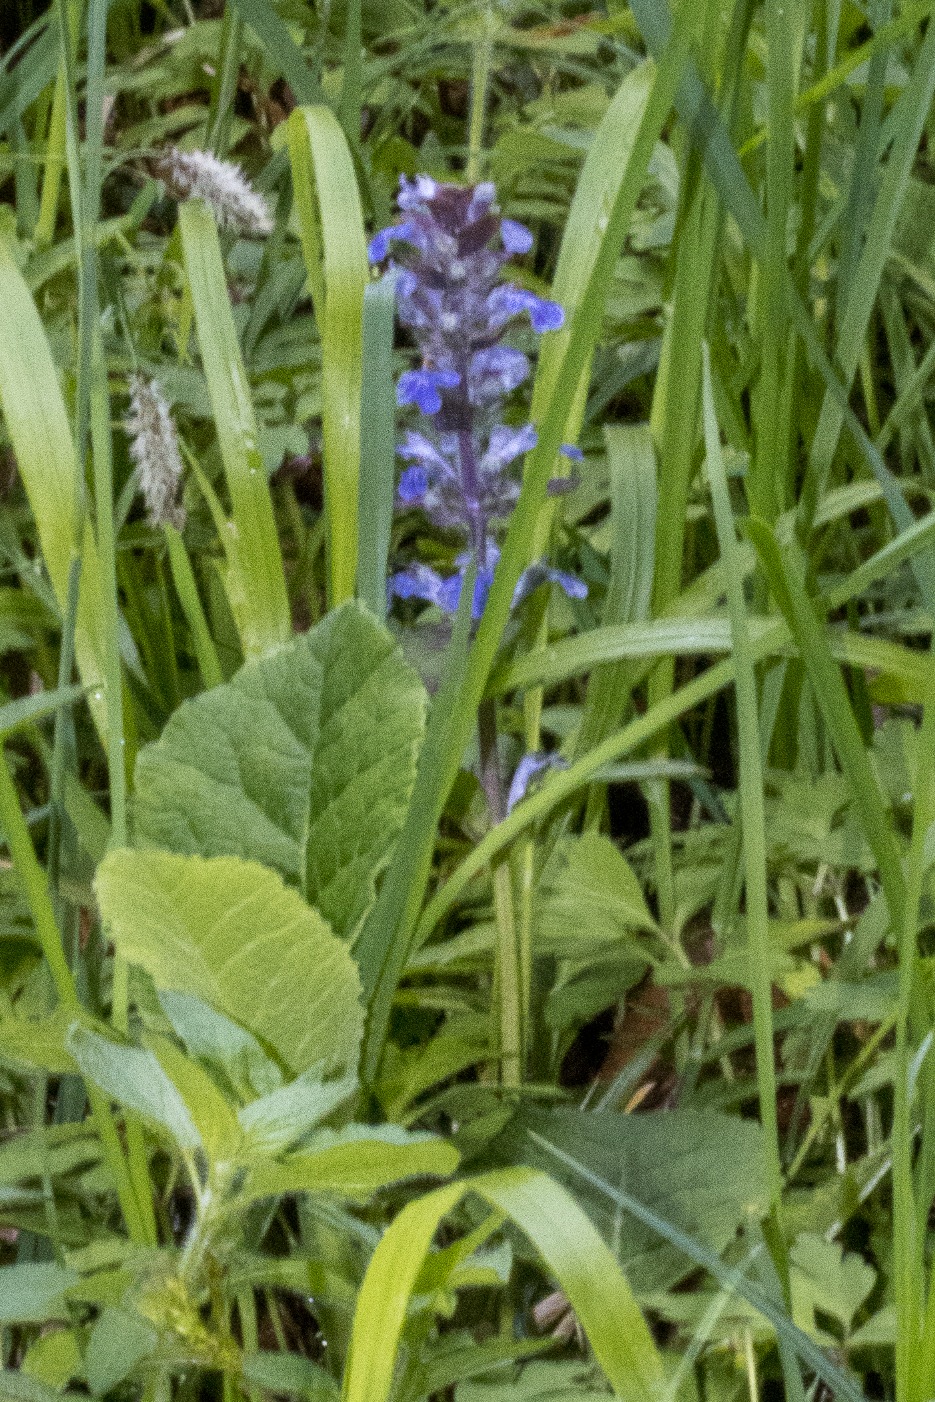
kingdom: Plantae
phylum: Tracheophyta
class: Magnoliopsida
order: Lamiales
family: Lamiaceae
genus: Ajuga
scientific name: Ajuga reptans
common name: Krybende læbeløs
